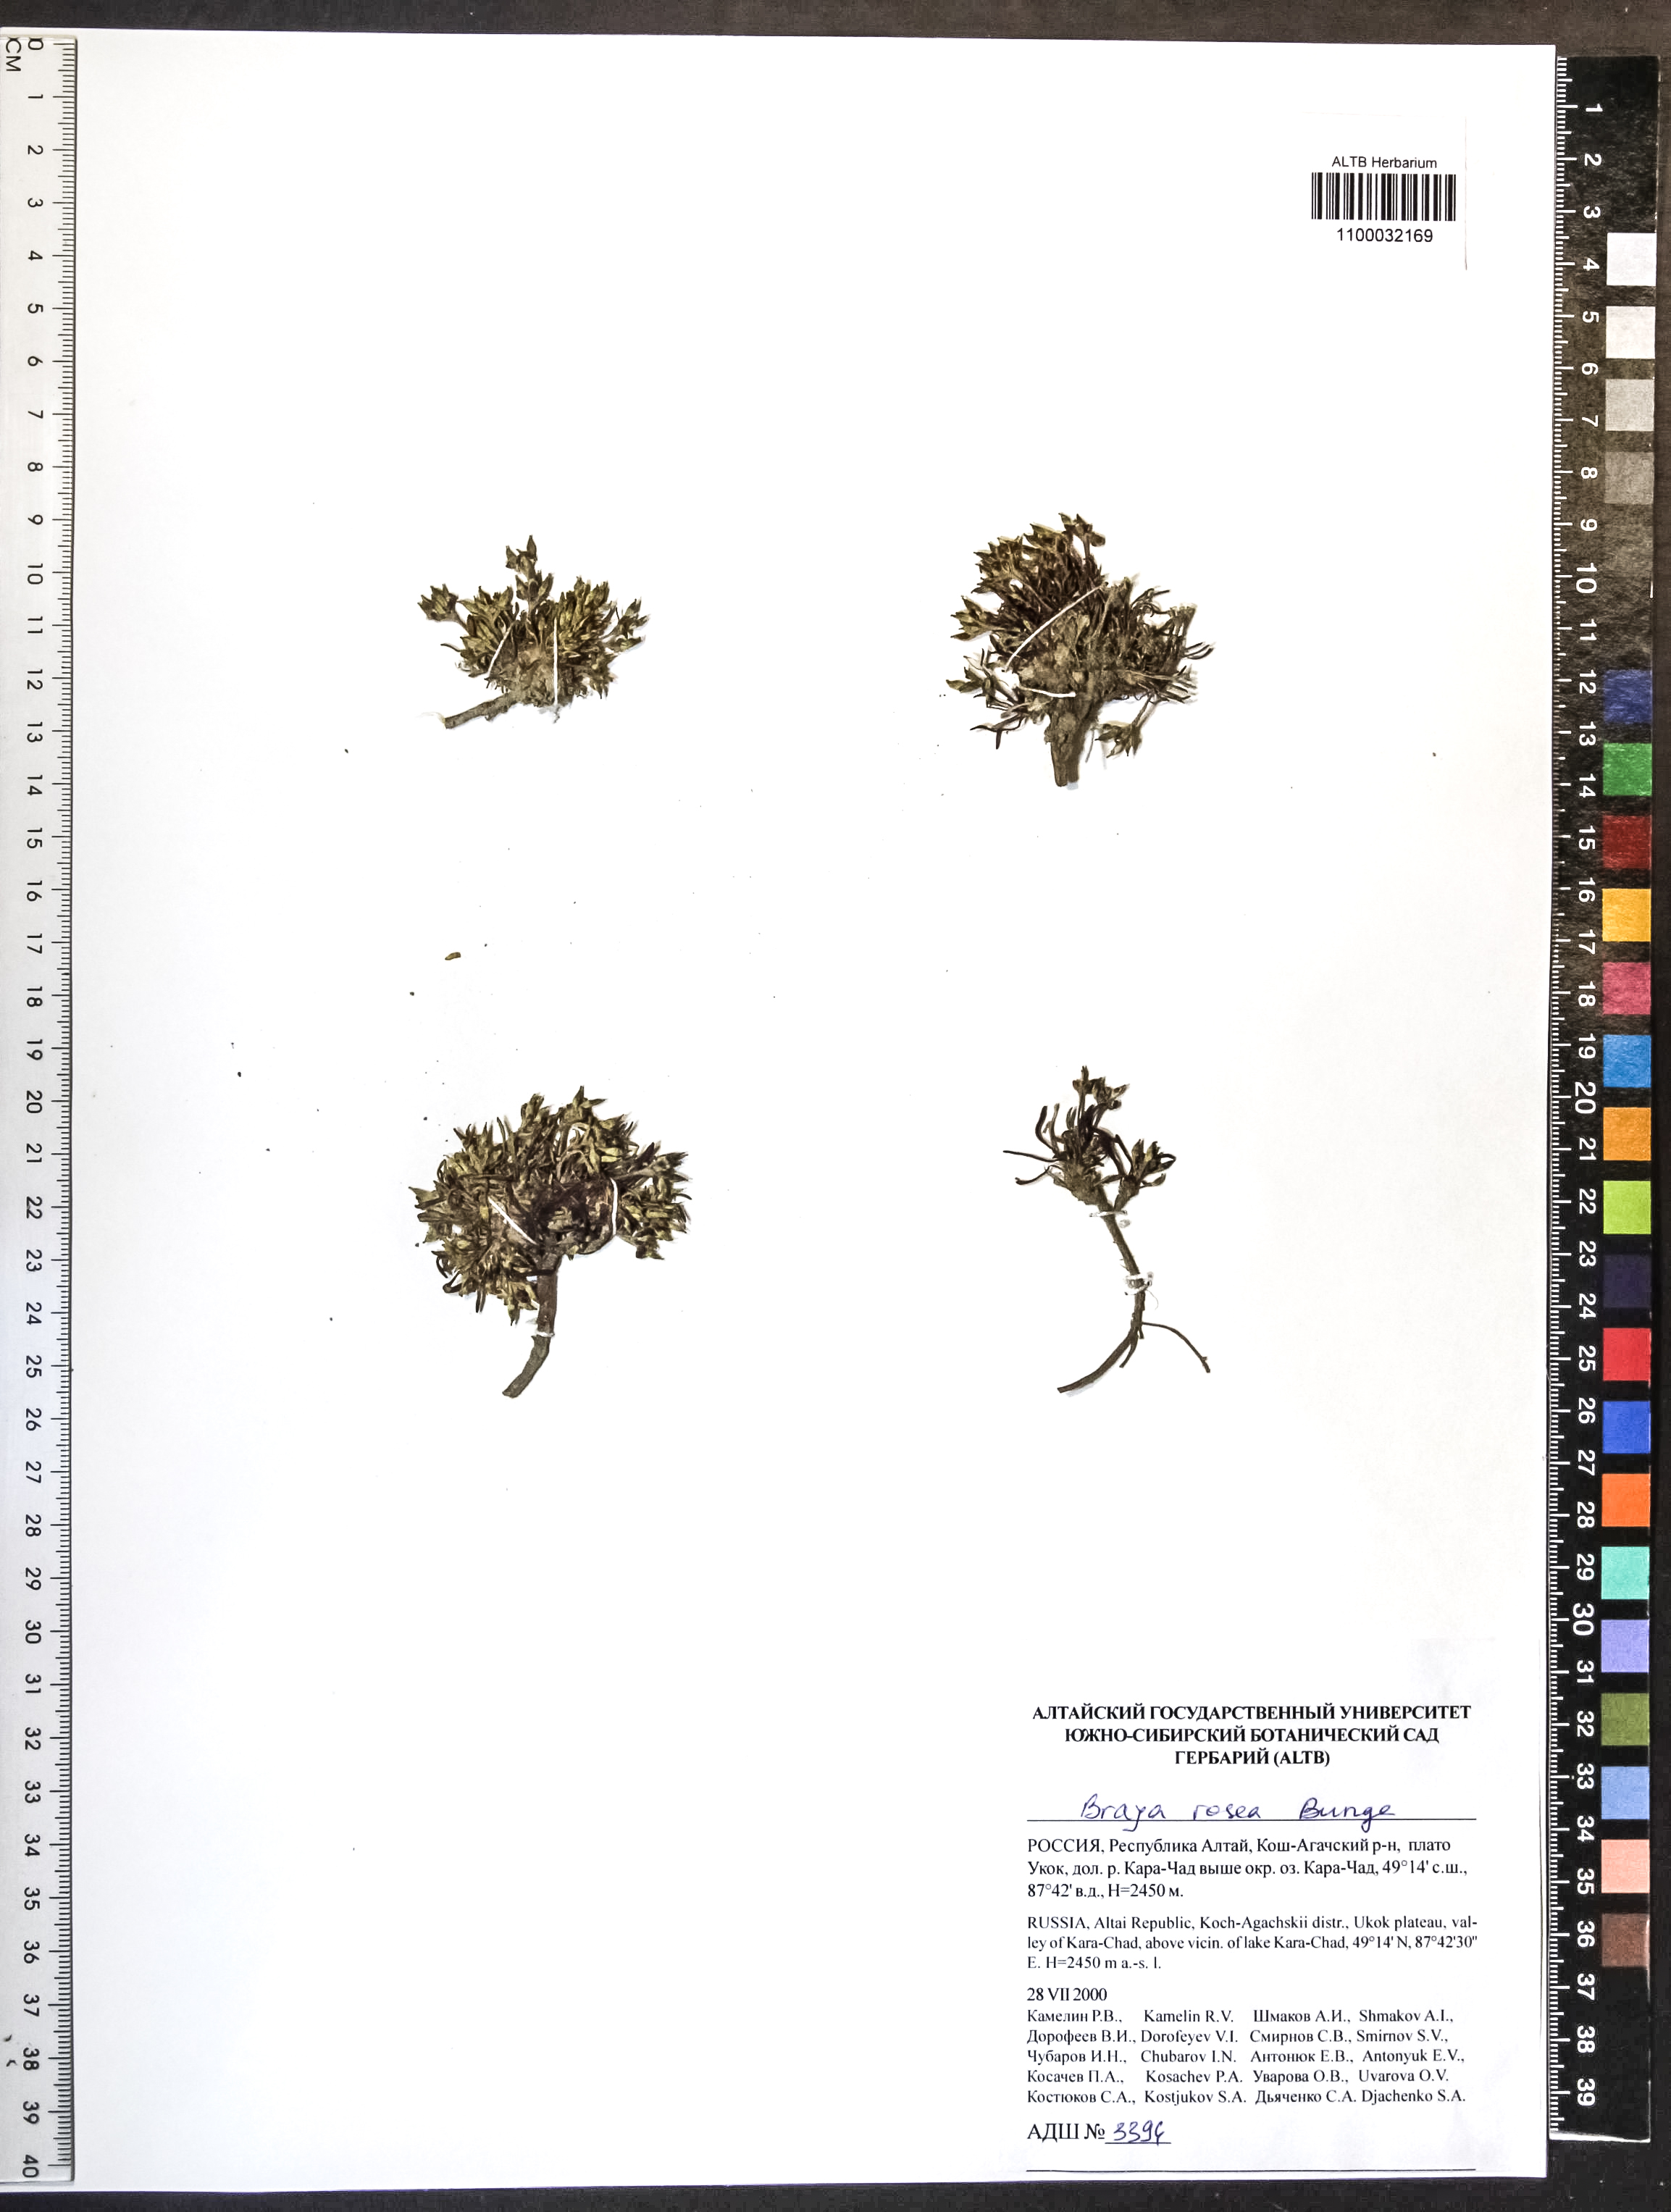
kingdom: Plantae
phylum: Tracheophyta
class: Magnoliopsida
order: Brassicales
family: Brassicaceae
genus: Braya
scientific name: Braya rosea
